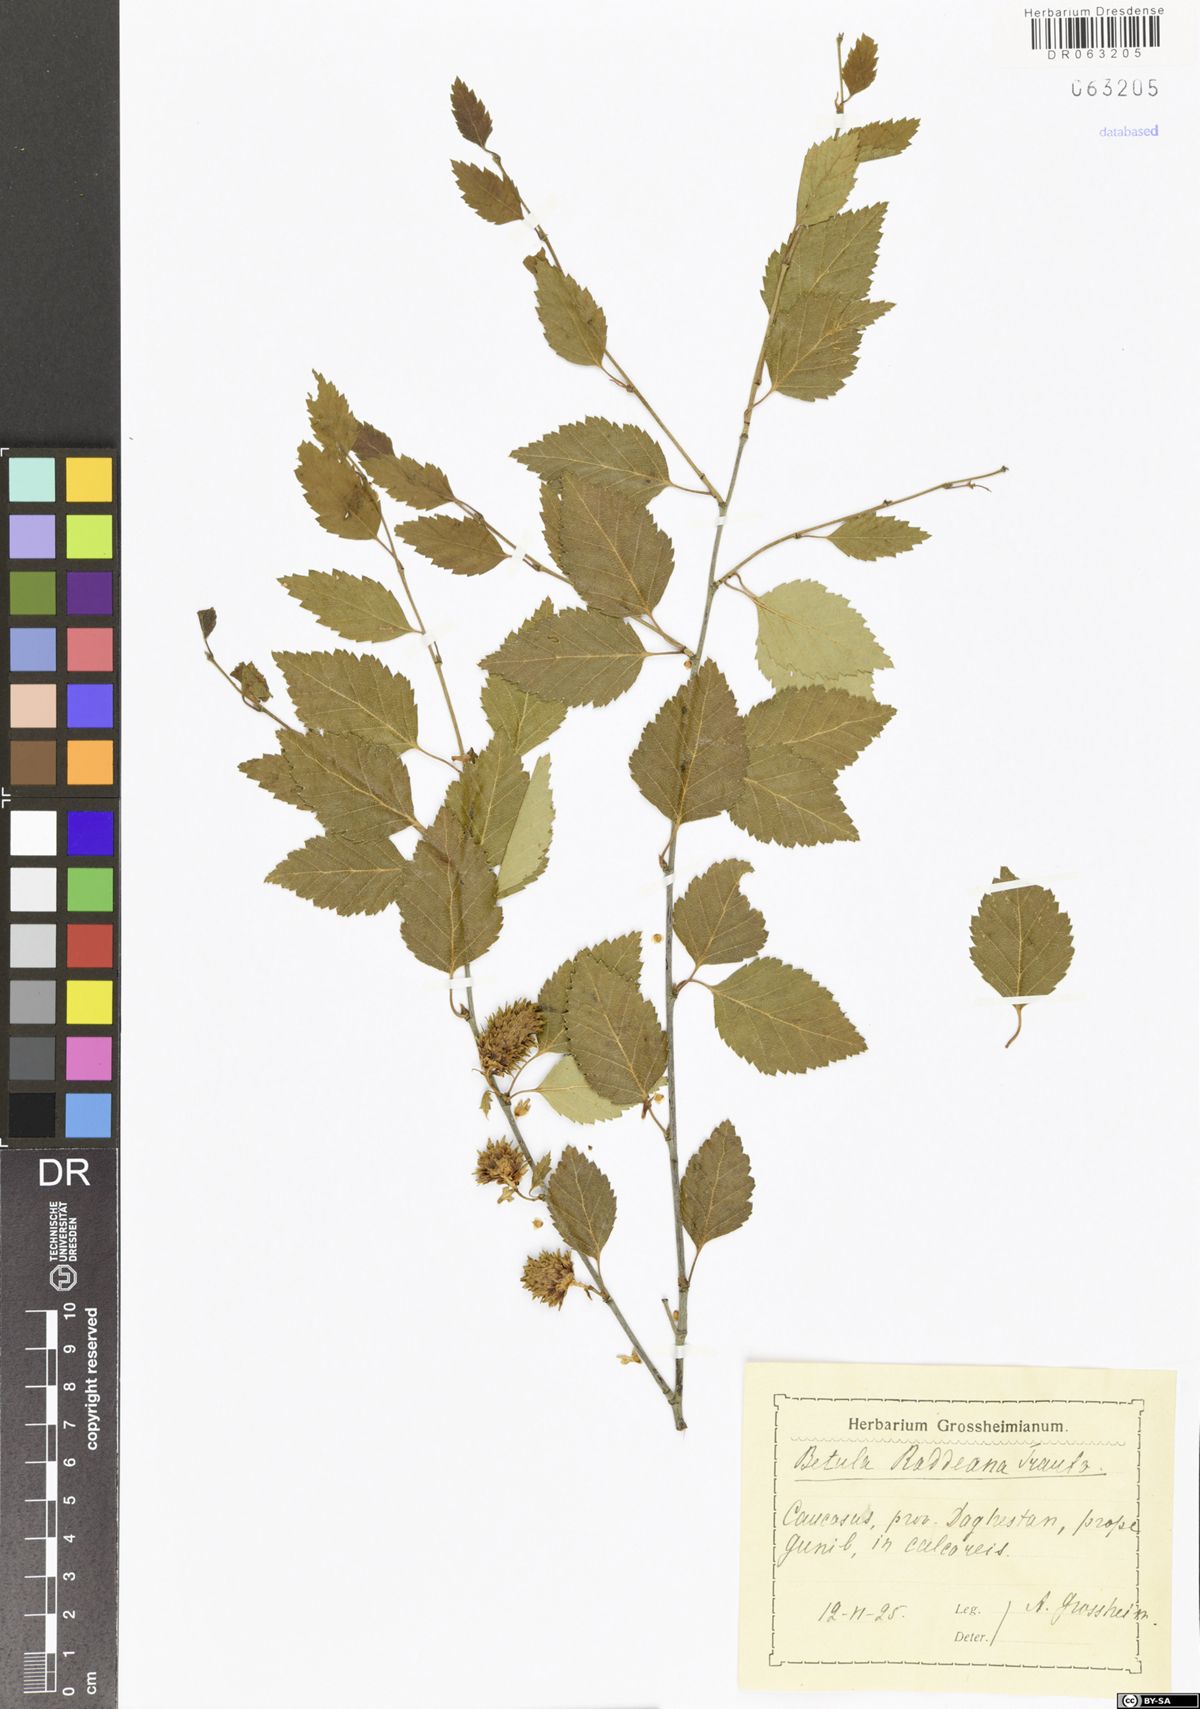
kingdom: Plantae
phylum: Tracheophyta
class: Magnoliopsida
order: Fagales
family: Betulaceae
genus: Betula
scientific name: Betula raddeana
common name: Radde's birch
